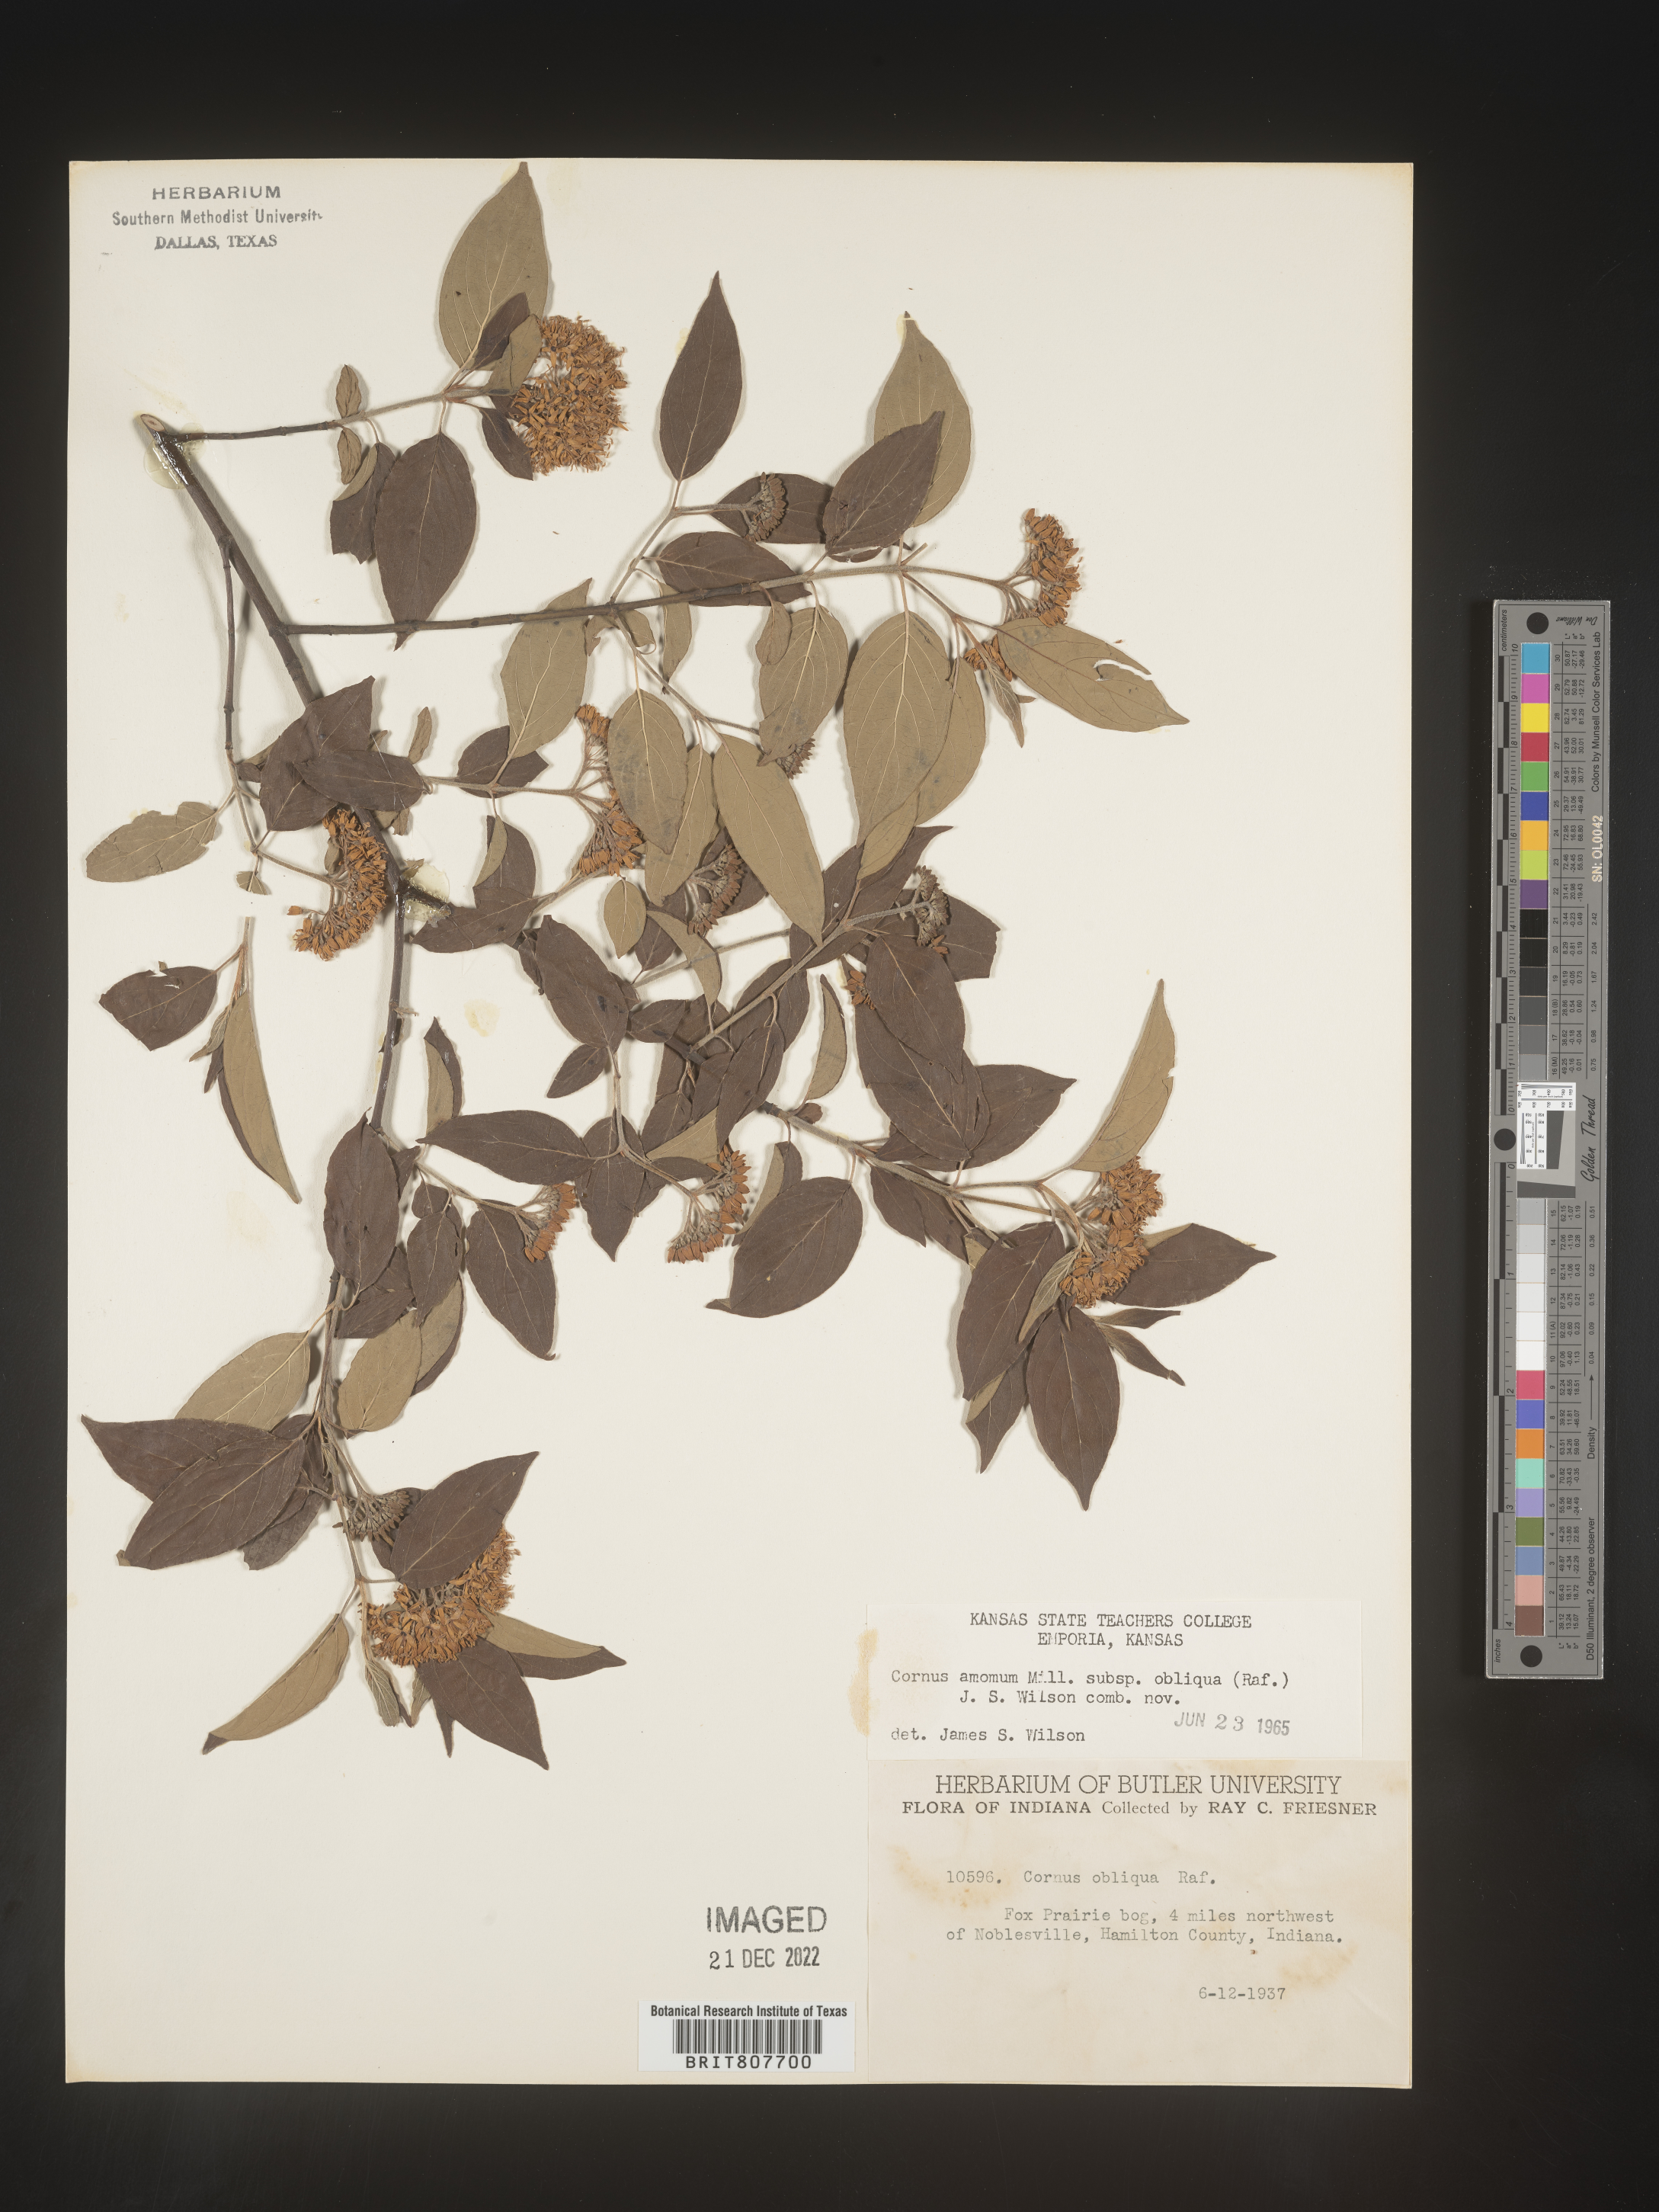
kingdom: Plantae
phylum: Tracheophyta
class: Magnoliopsida
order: Cornales
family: Cornaceae
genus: Cornus
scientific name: Cornus obliqua
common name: Pale dogwood
